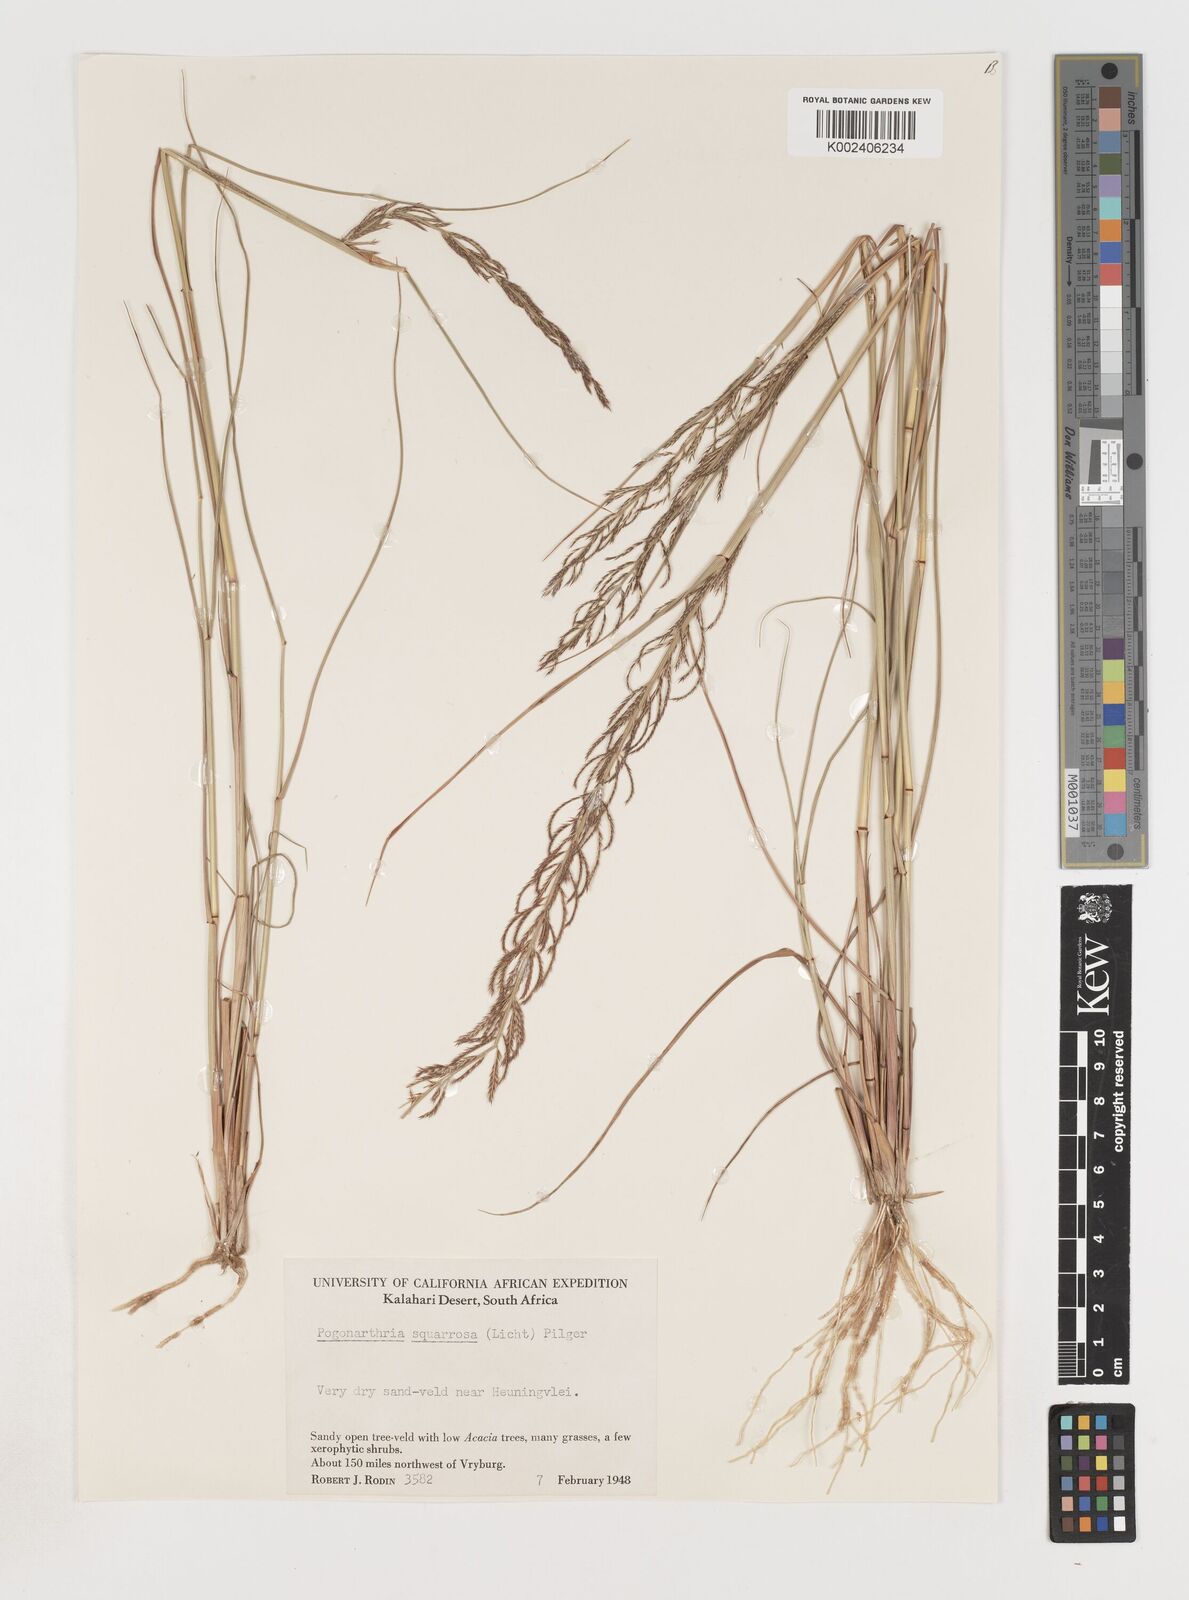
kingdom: Plantae
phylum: Tracheophyta
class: Liliopsida
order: Poales
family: Poaceae
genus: Pogonarthria
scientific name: Pogonarthria squarrosa
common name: Grass
